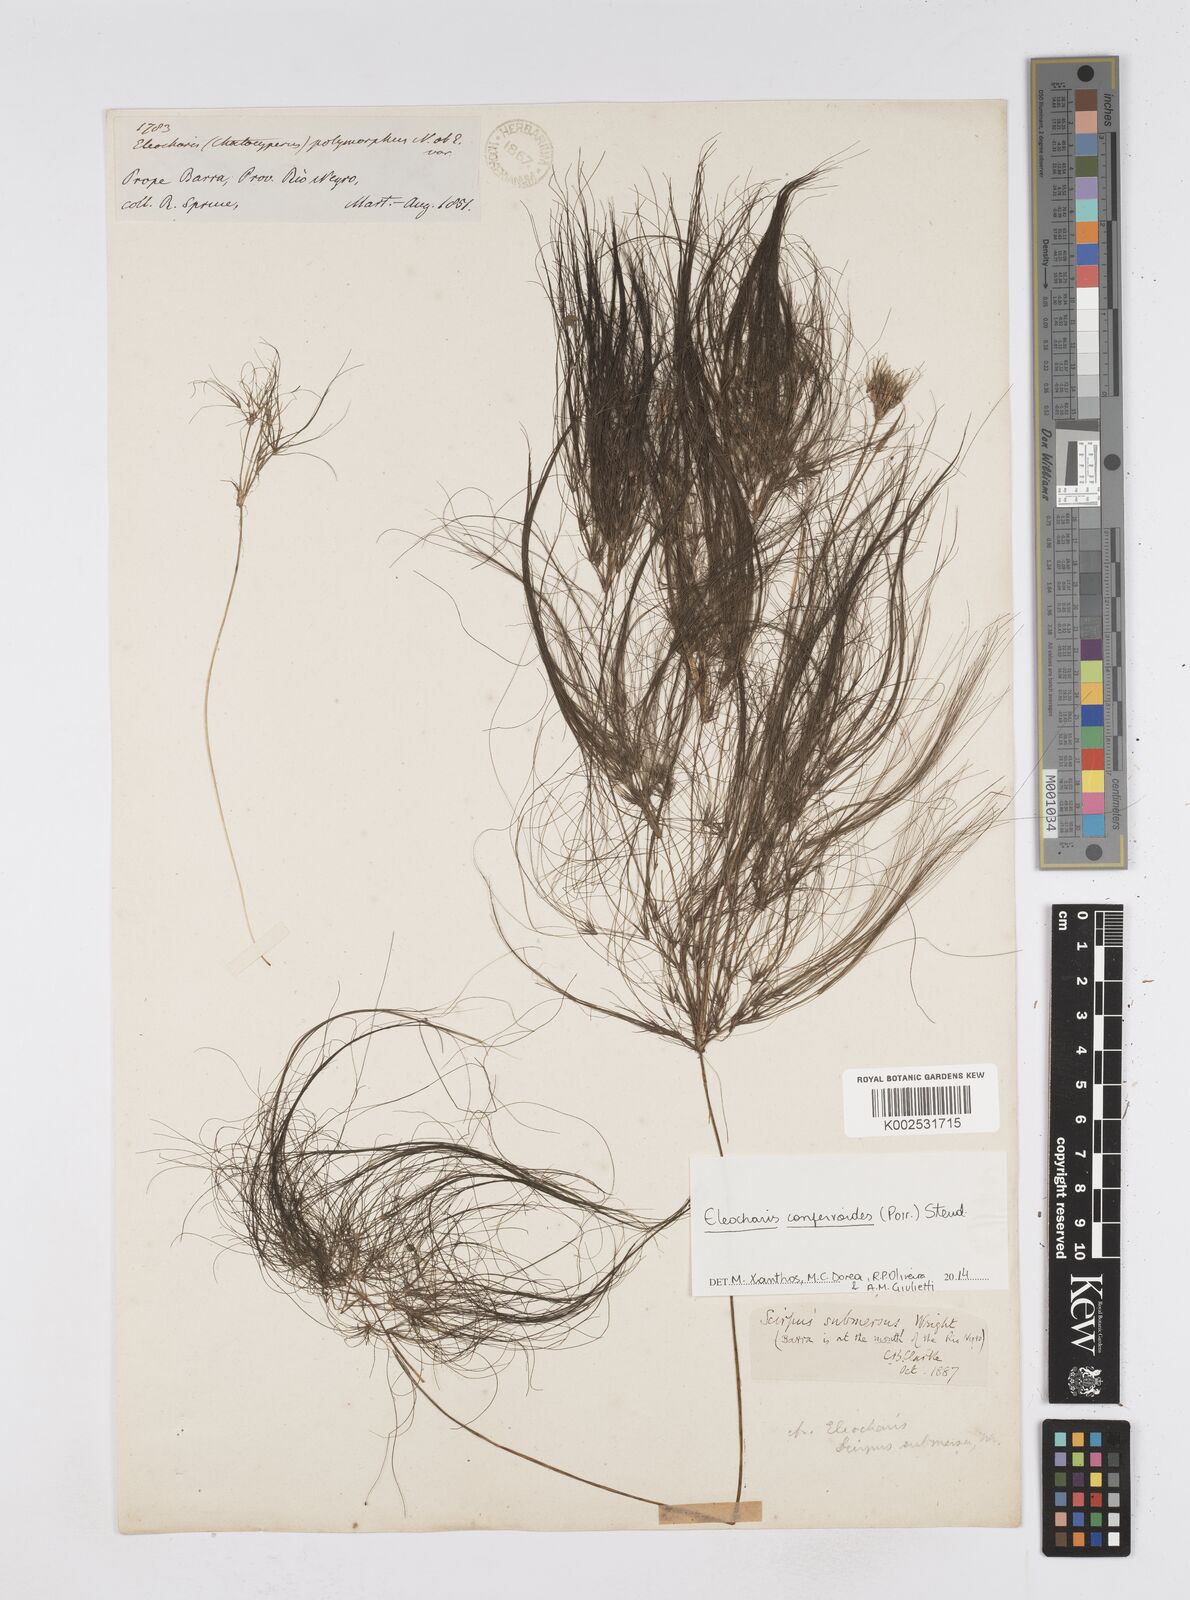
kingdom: Plantae
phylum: Tracheophyta
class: Liliopsida
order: Poales
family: Cyperaceae
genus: Eleocharis
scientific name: Eleocharis confervoides
